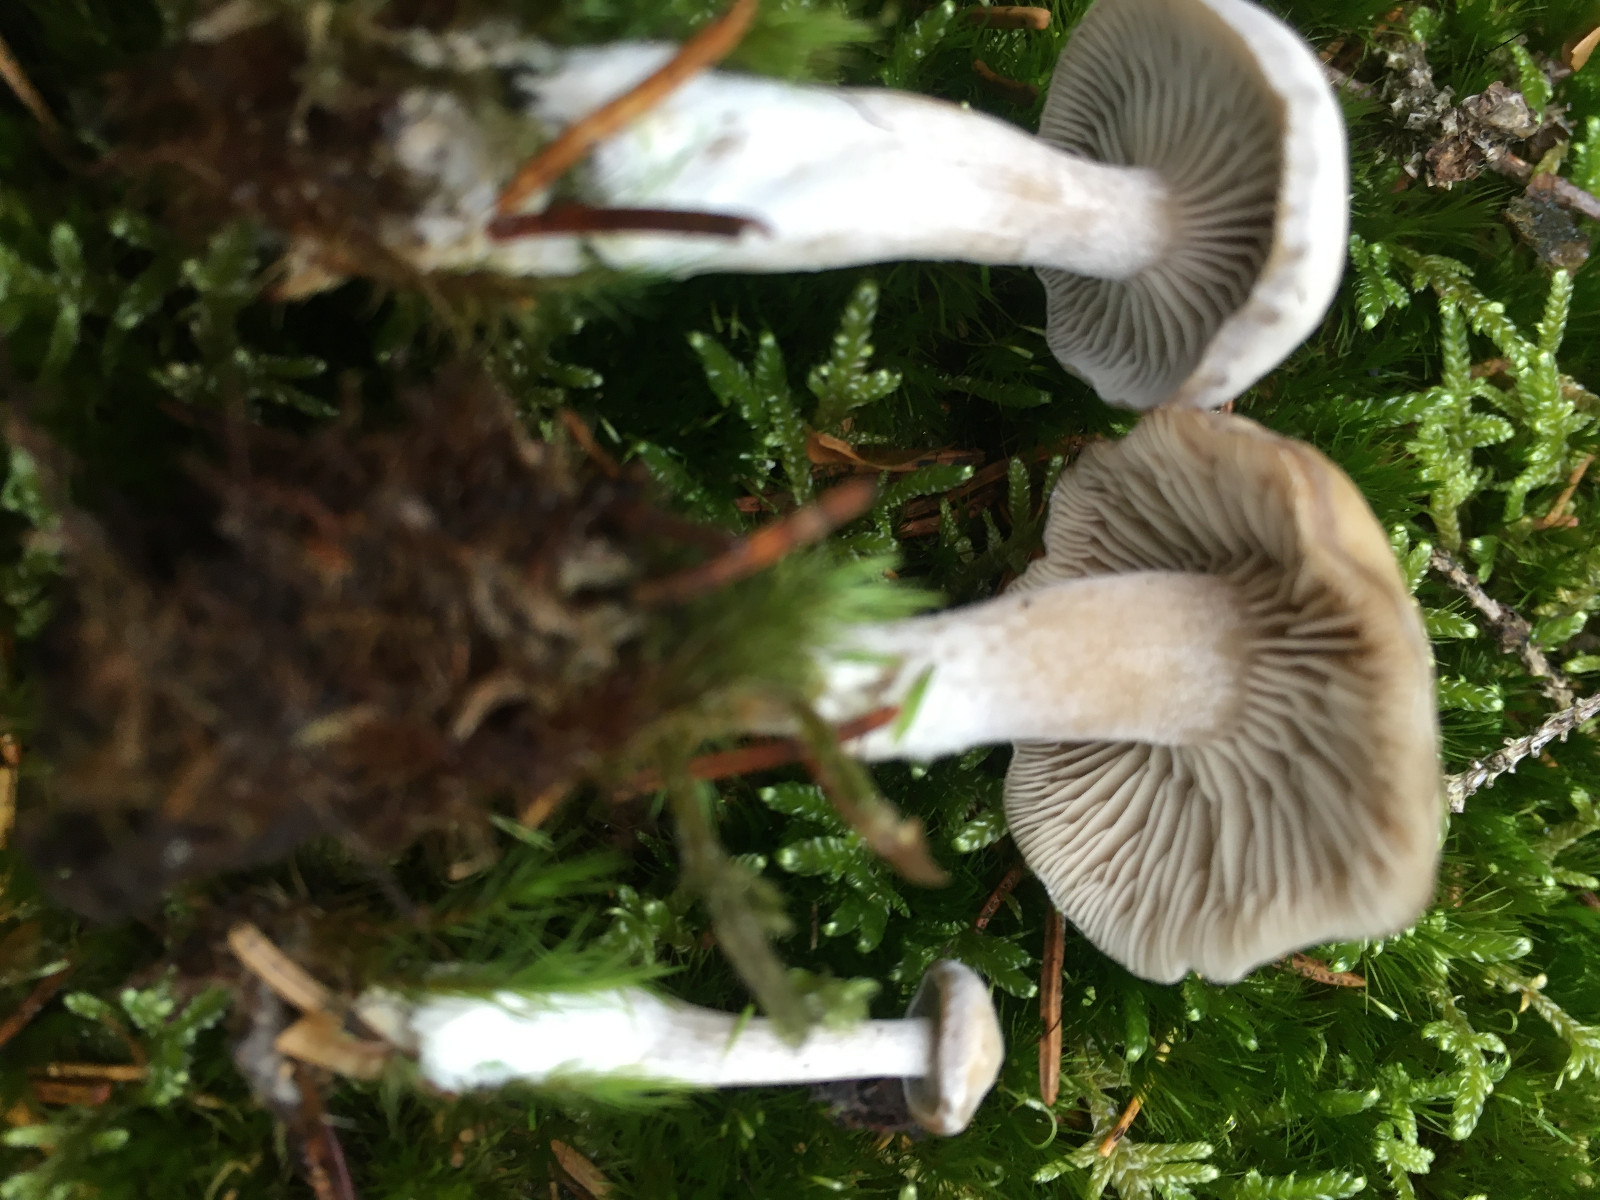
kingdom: Fungi
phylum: Basidiomycota
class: Agaricomycetes
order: Agaricales
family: Tricholomataceae
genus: Clitocybe
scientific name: Clitocybe
